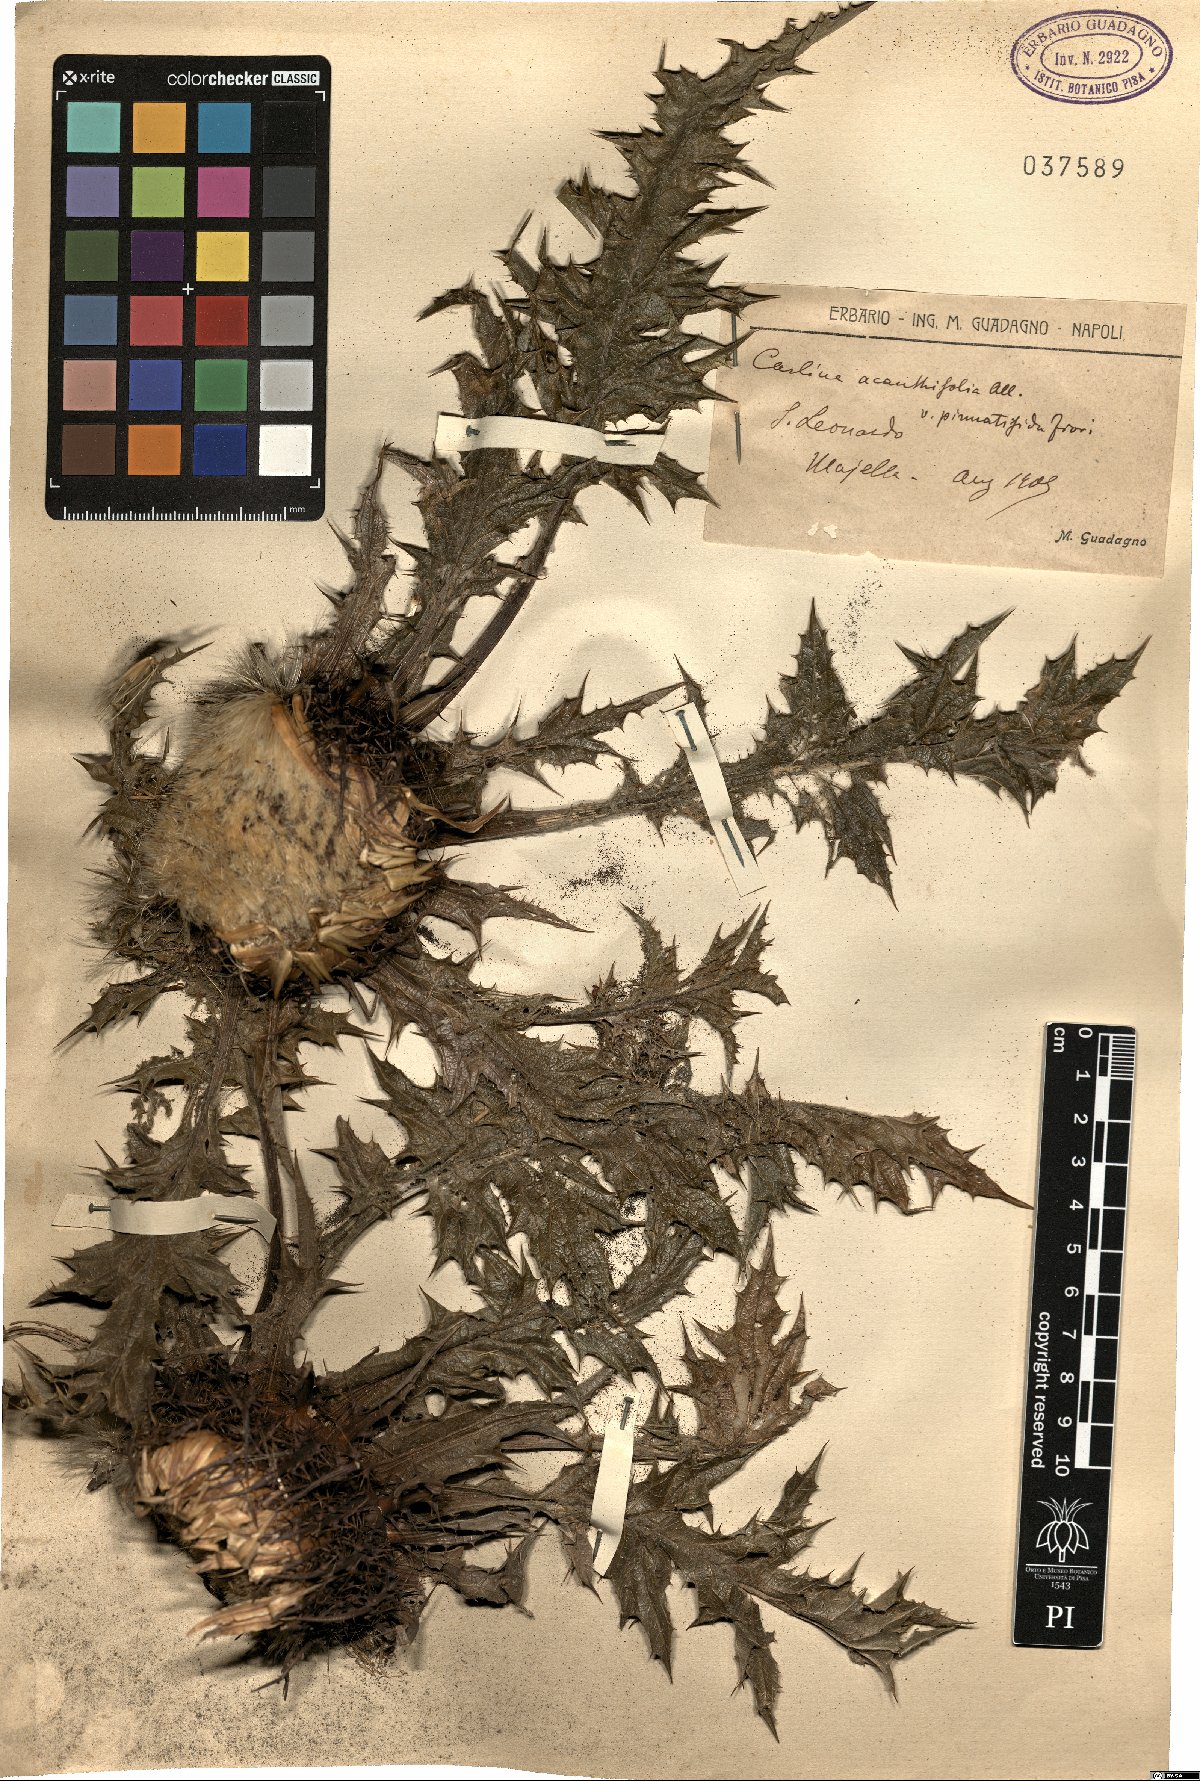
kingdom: Plantae
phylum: Tracheophyta
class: Magnoliopsida
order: Asterales
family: Asteraceae
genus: Carlina
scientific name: Carlina acanthifolia
